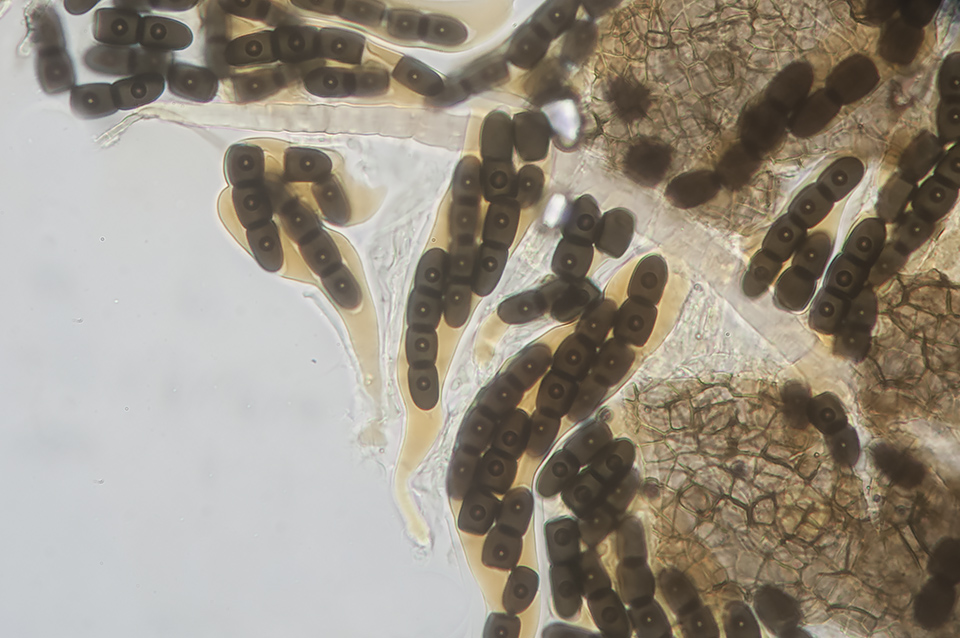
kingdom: Fungi
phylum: Ascomycota
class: Dothideomycetes
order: Pleosporales
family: Sporormiaceae
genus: Sporormiella
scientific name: Sporormiella intermedia
